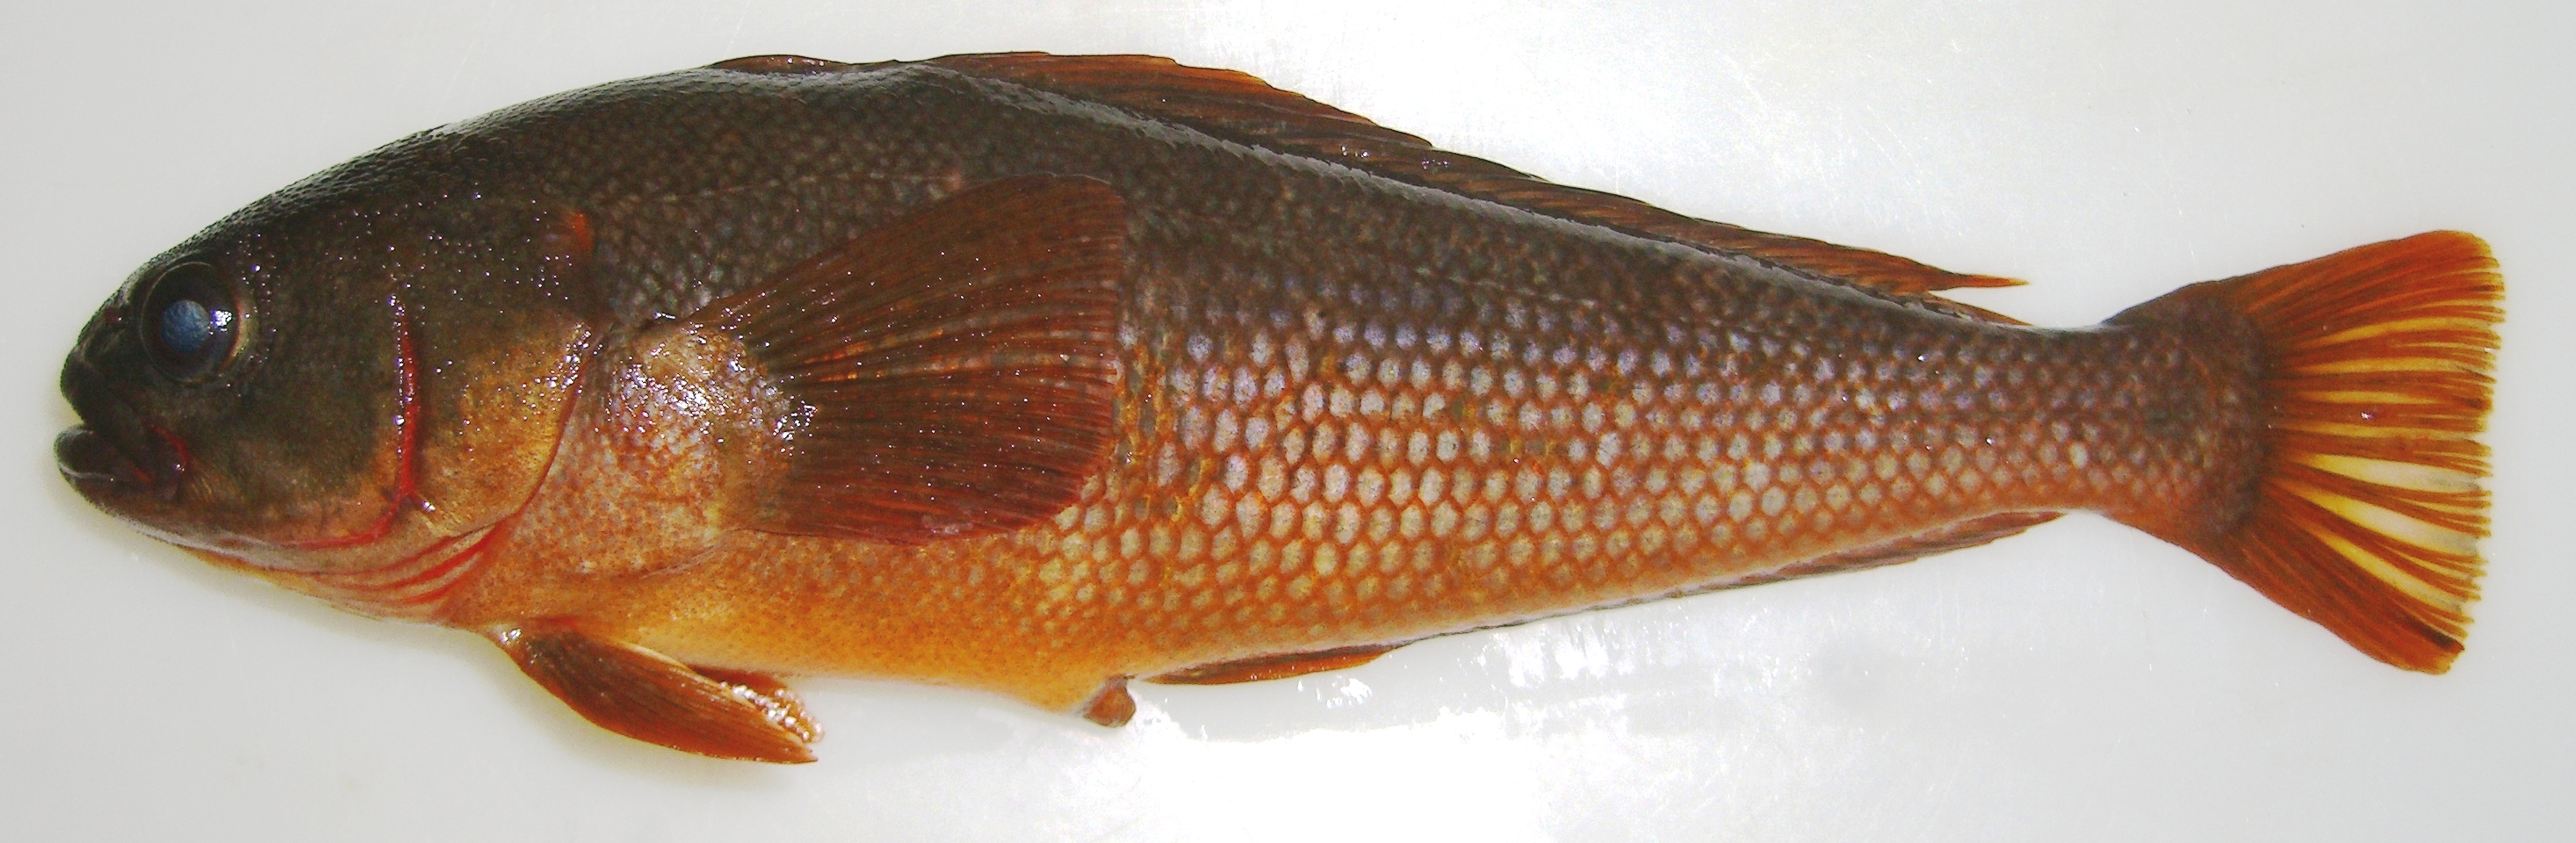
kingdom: Animalia
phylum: Chordata
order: Perciformes
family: Nototheniidae
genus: Paranotothenia
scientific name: Paranotothenia magellanica
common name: Magellanic rockcod
